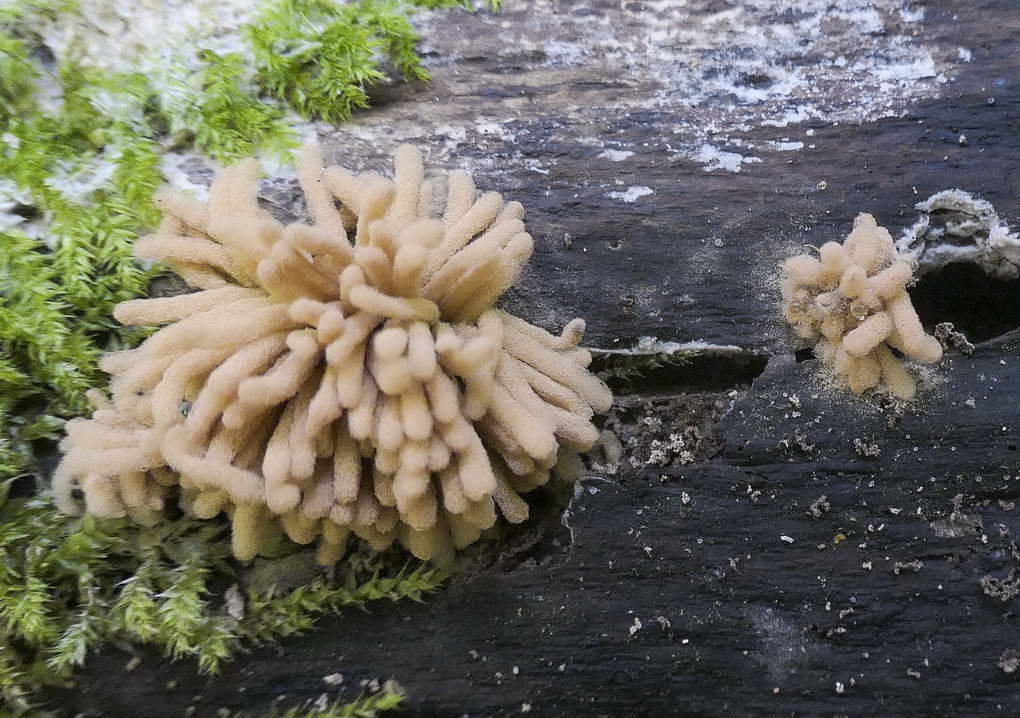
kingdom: Protozoa
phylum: Mycetozoa
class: Myxomycetes
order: Trichiales
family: Arcyriaceae
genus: Arcyria
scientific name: Arcyria obvelata
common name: okkergul skålsvøb
